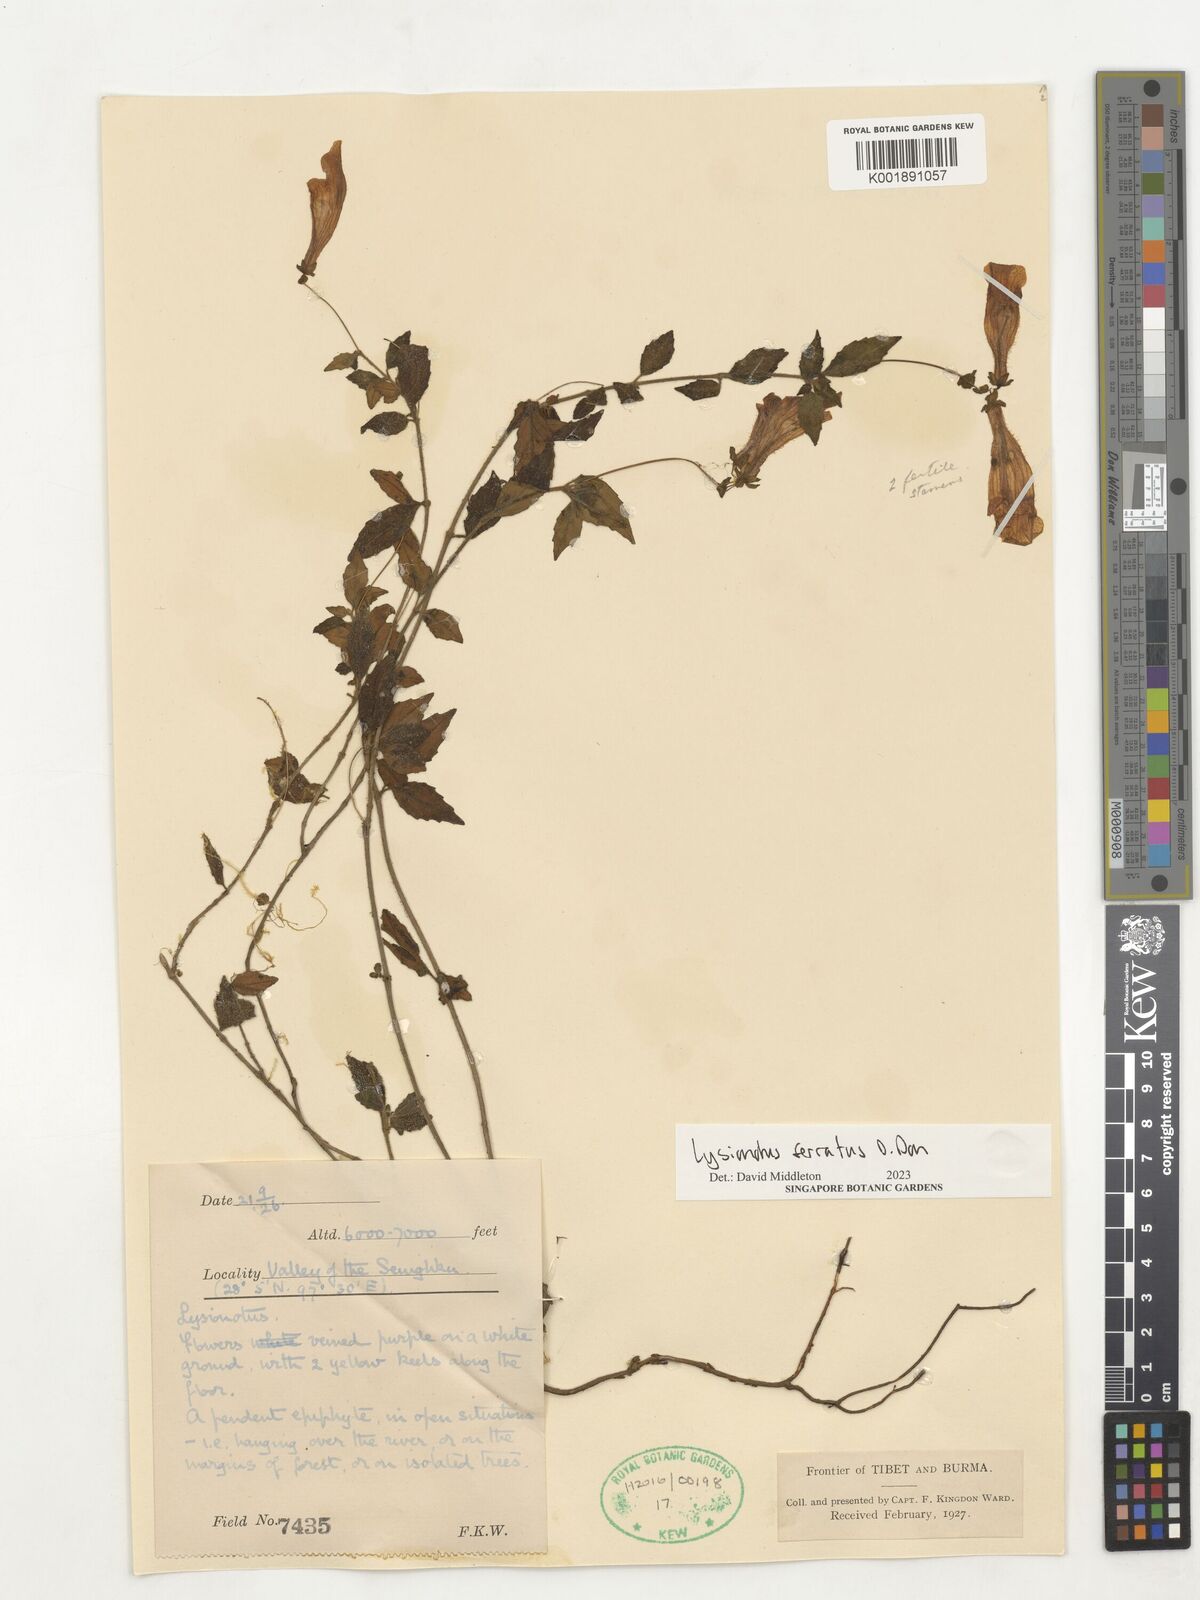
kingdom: Plantae
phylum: Tracheophyta
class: Magnoliopsida
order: Lamiales
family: Gesneriaceae
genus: Lysionotus
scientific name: Lysionotus serratus
